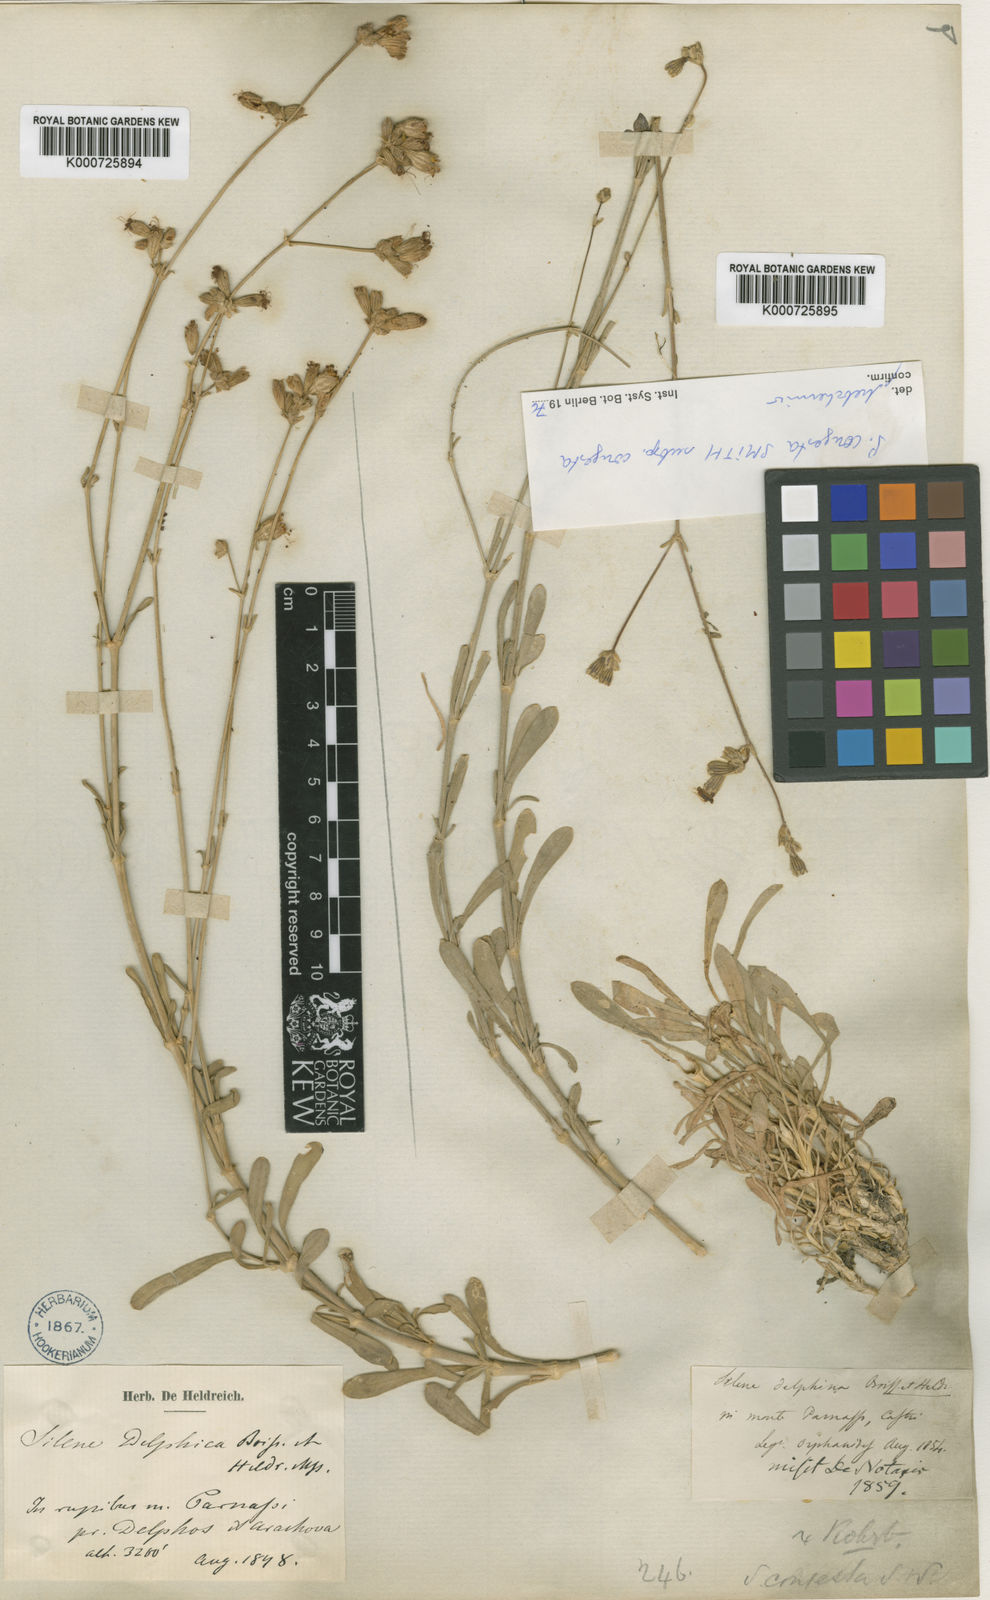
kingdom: Plantae
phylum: Tracheophyta
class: Magnoliopsida
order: Caryophyllales
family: Caryophyllaceae
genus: Silene
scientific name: Silene congesta
